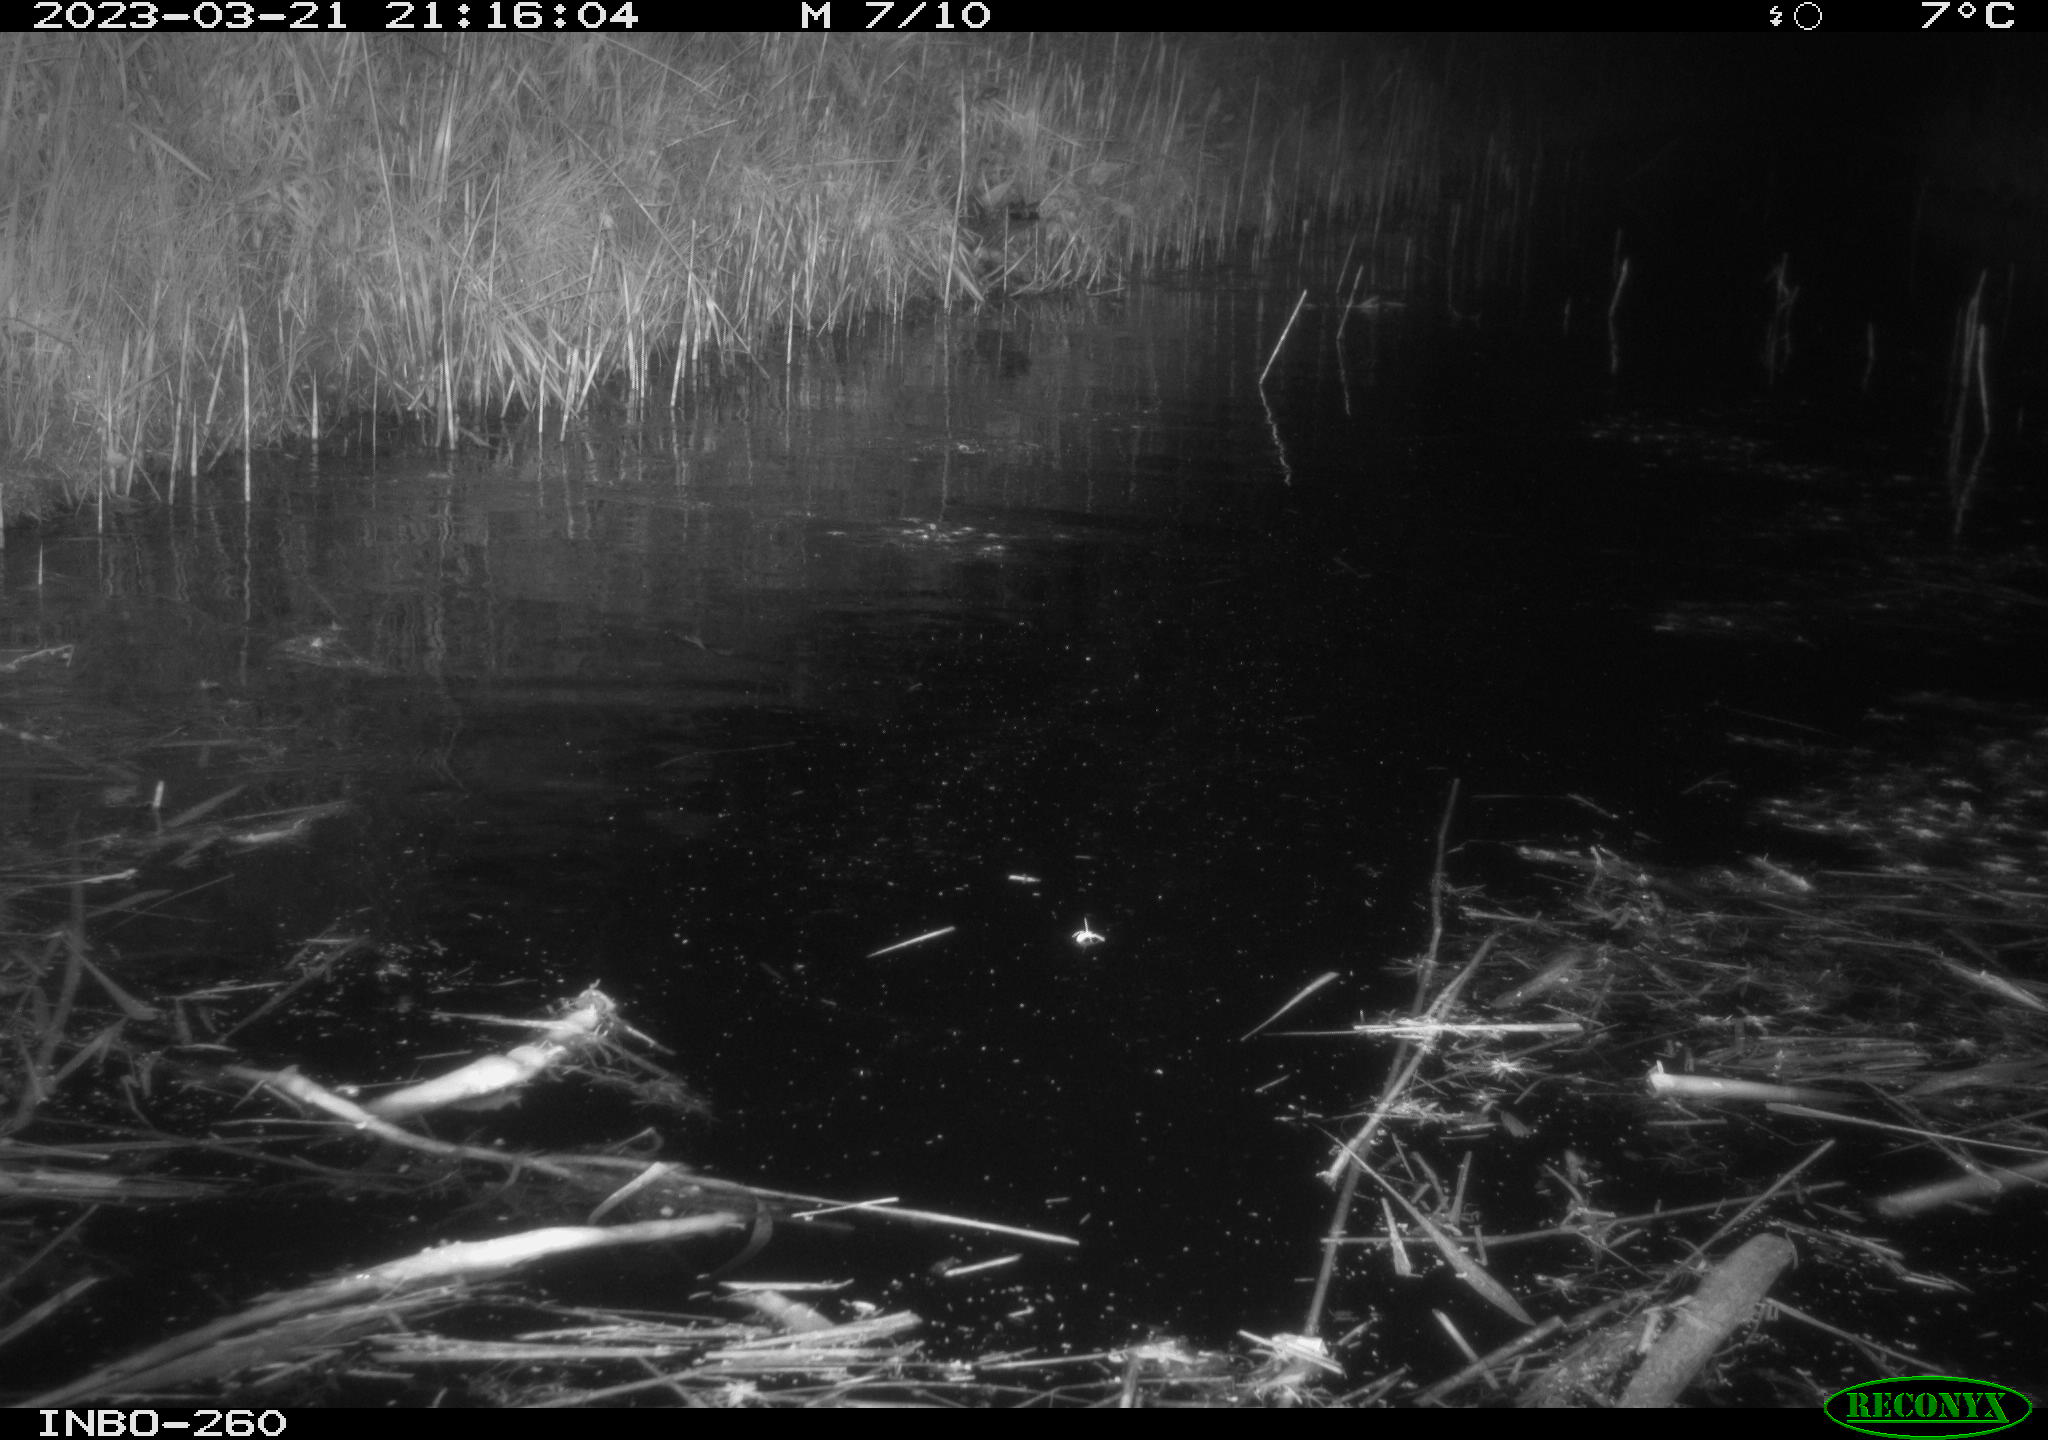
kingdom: Animalia
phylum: Chordata
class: Mammalia
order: Rodentia
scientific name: Rodentia
